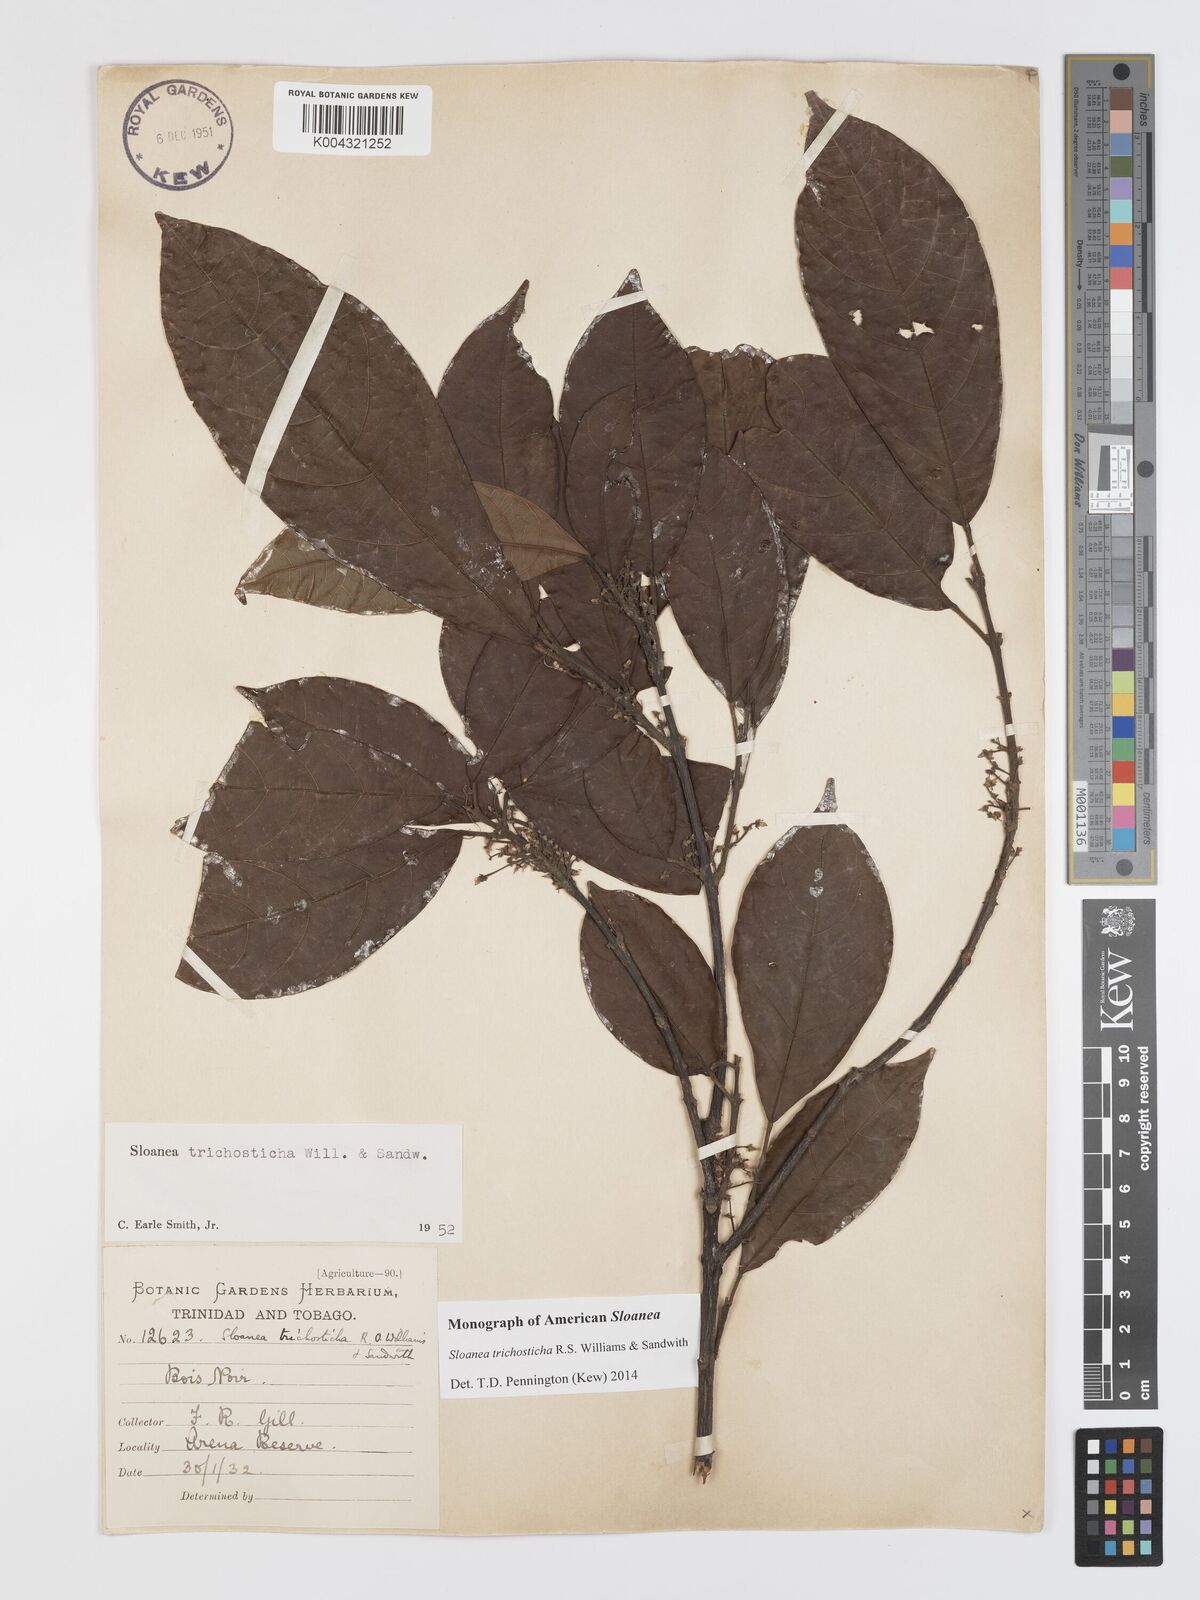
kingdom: Plantae
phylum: Tracheophyta
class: Magnoliopsida
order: Oxalidales
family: Elaeocarpaceae
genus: Sloanea
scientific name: Sloanea trichosticha
